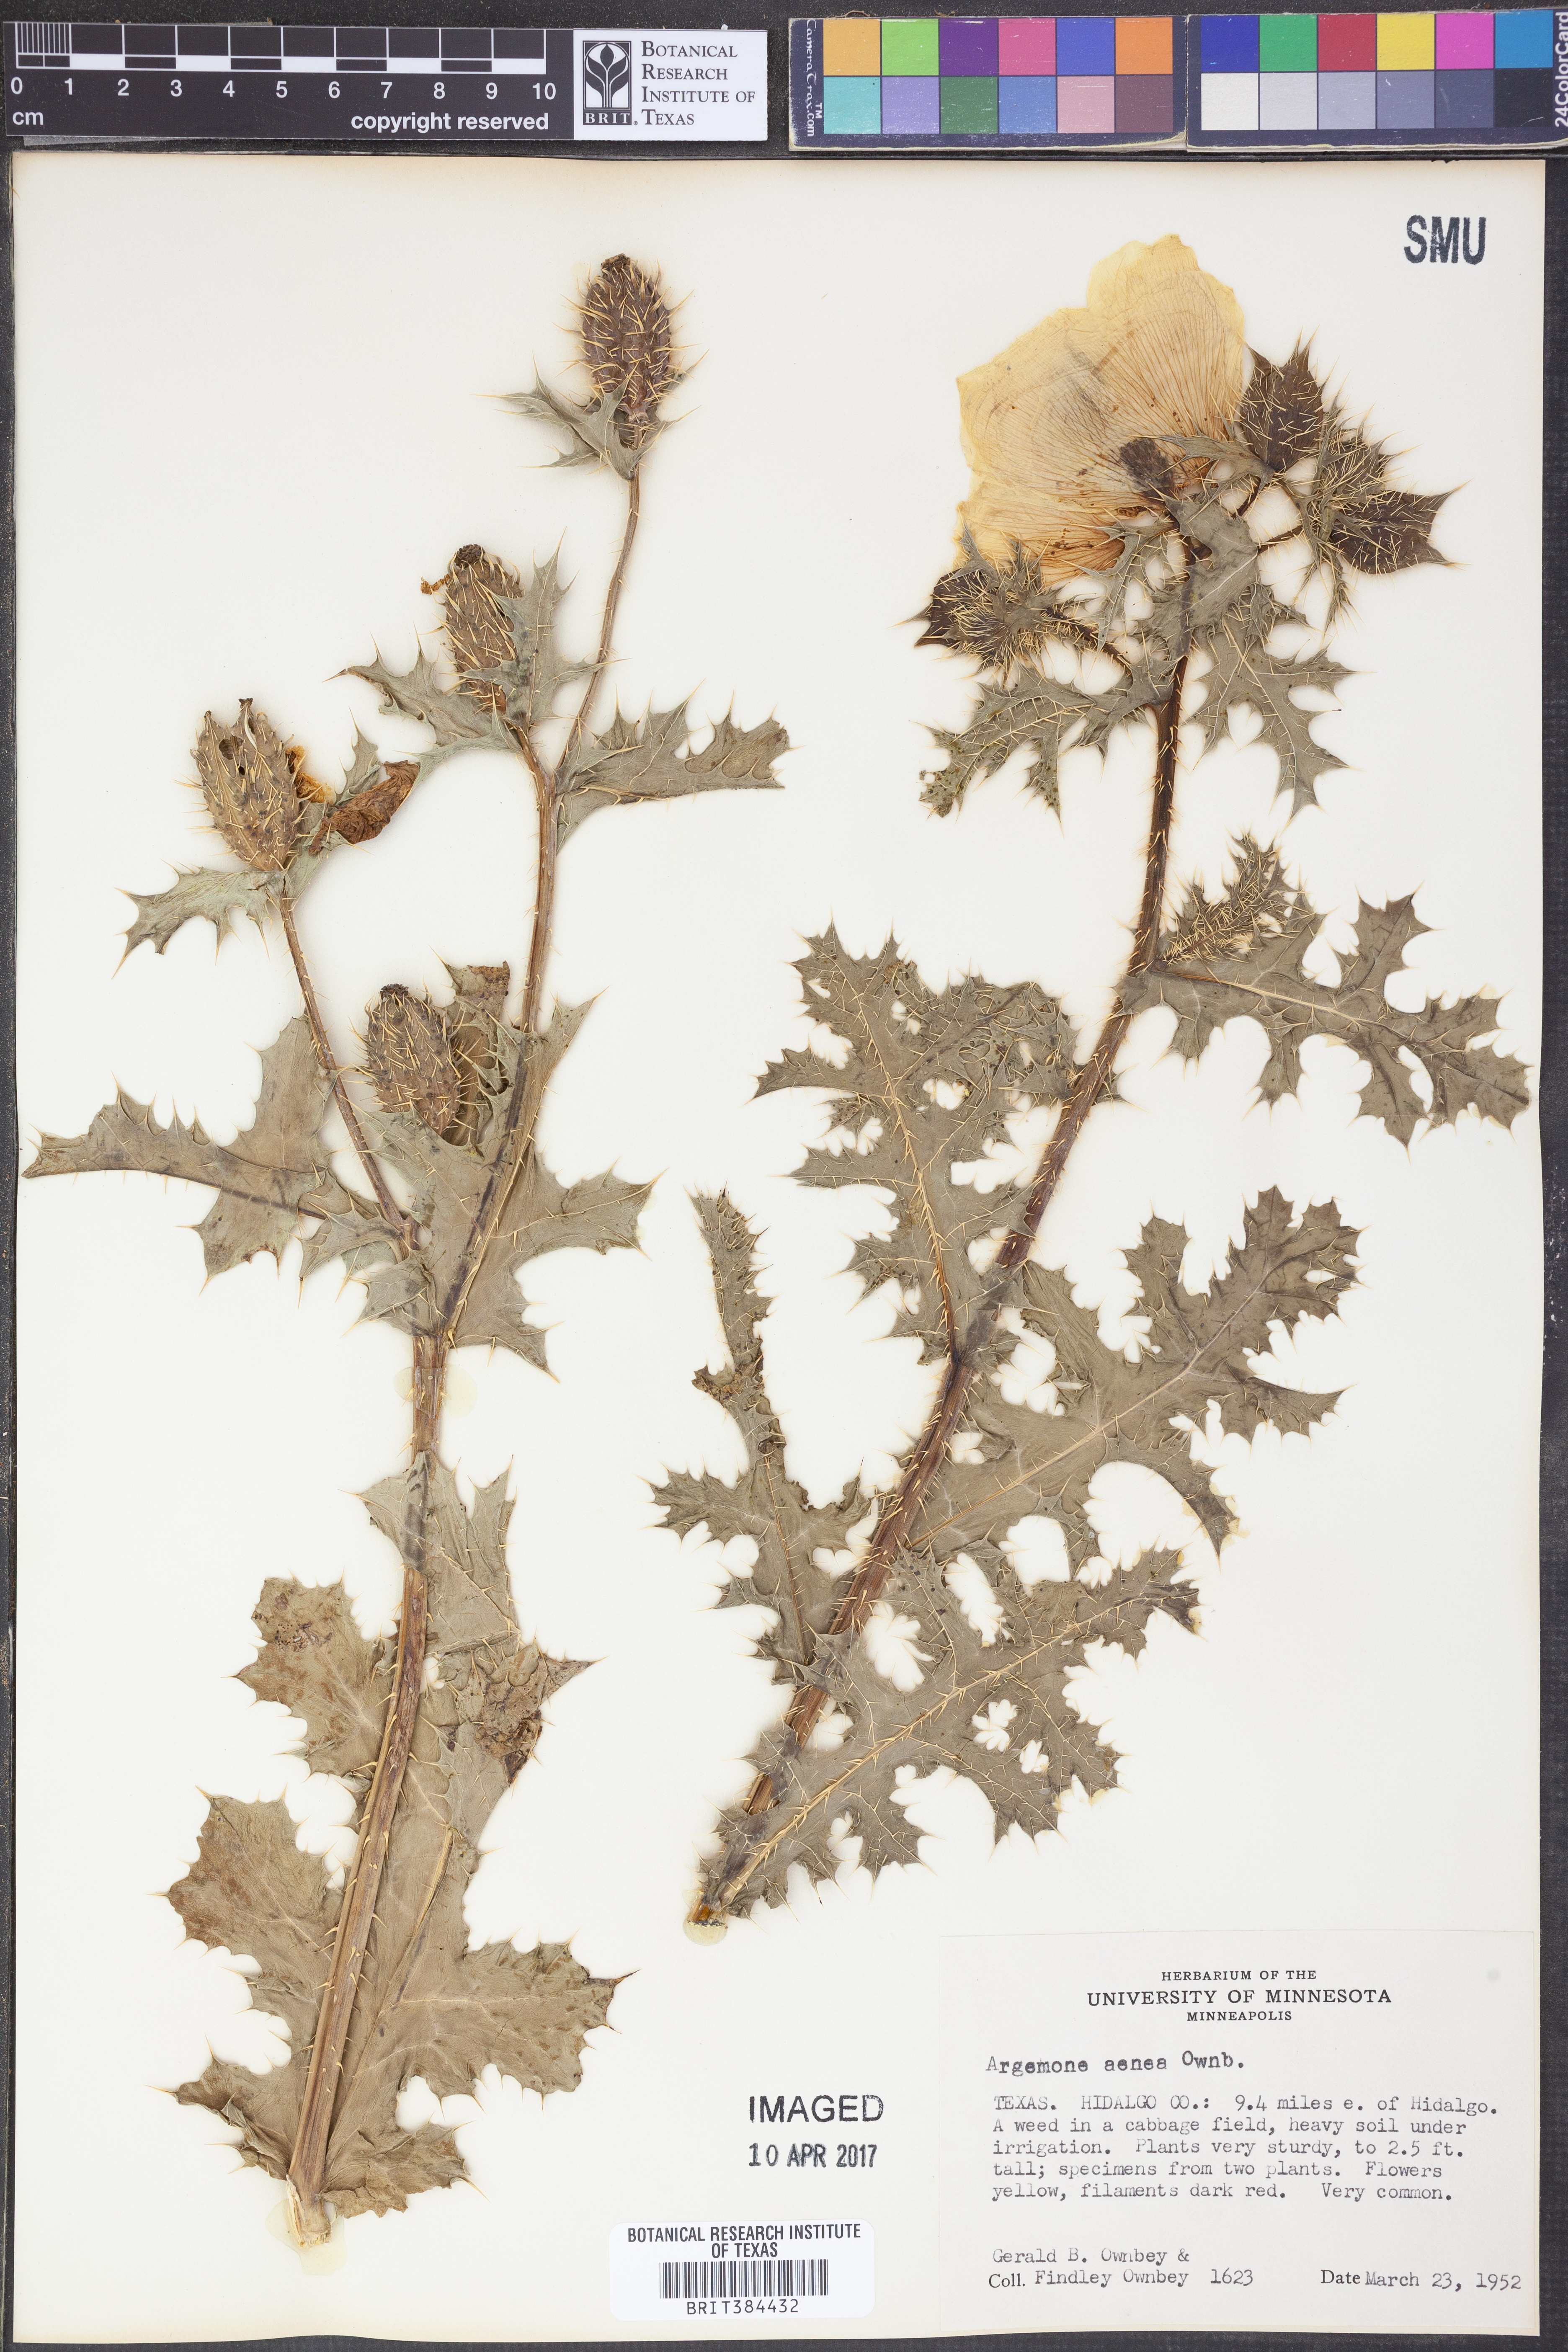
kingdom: Plantae
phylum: Tracheophyta
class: Magnoliopsida
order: Ranunculales
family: Papaveraceae
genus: Argemone
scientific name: Argemone aenea
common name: Golden prickly-poppy
